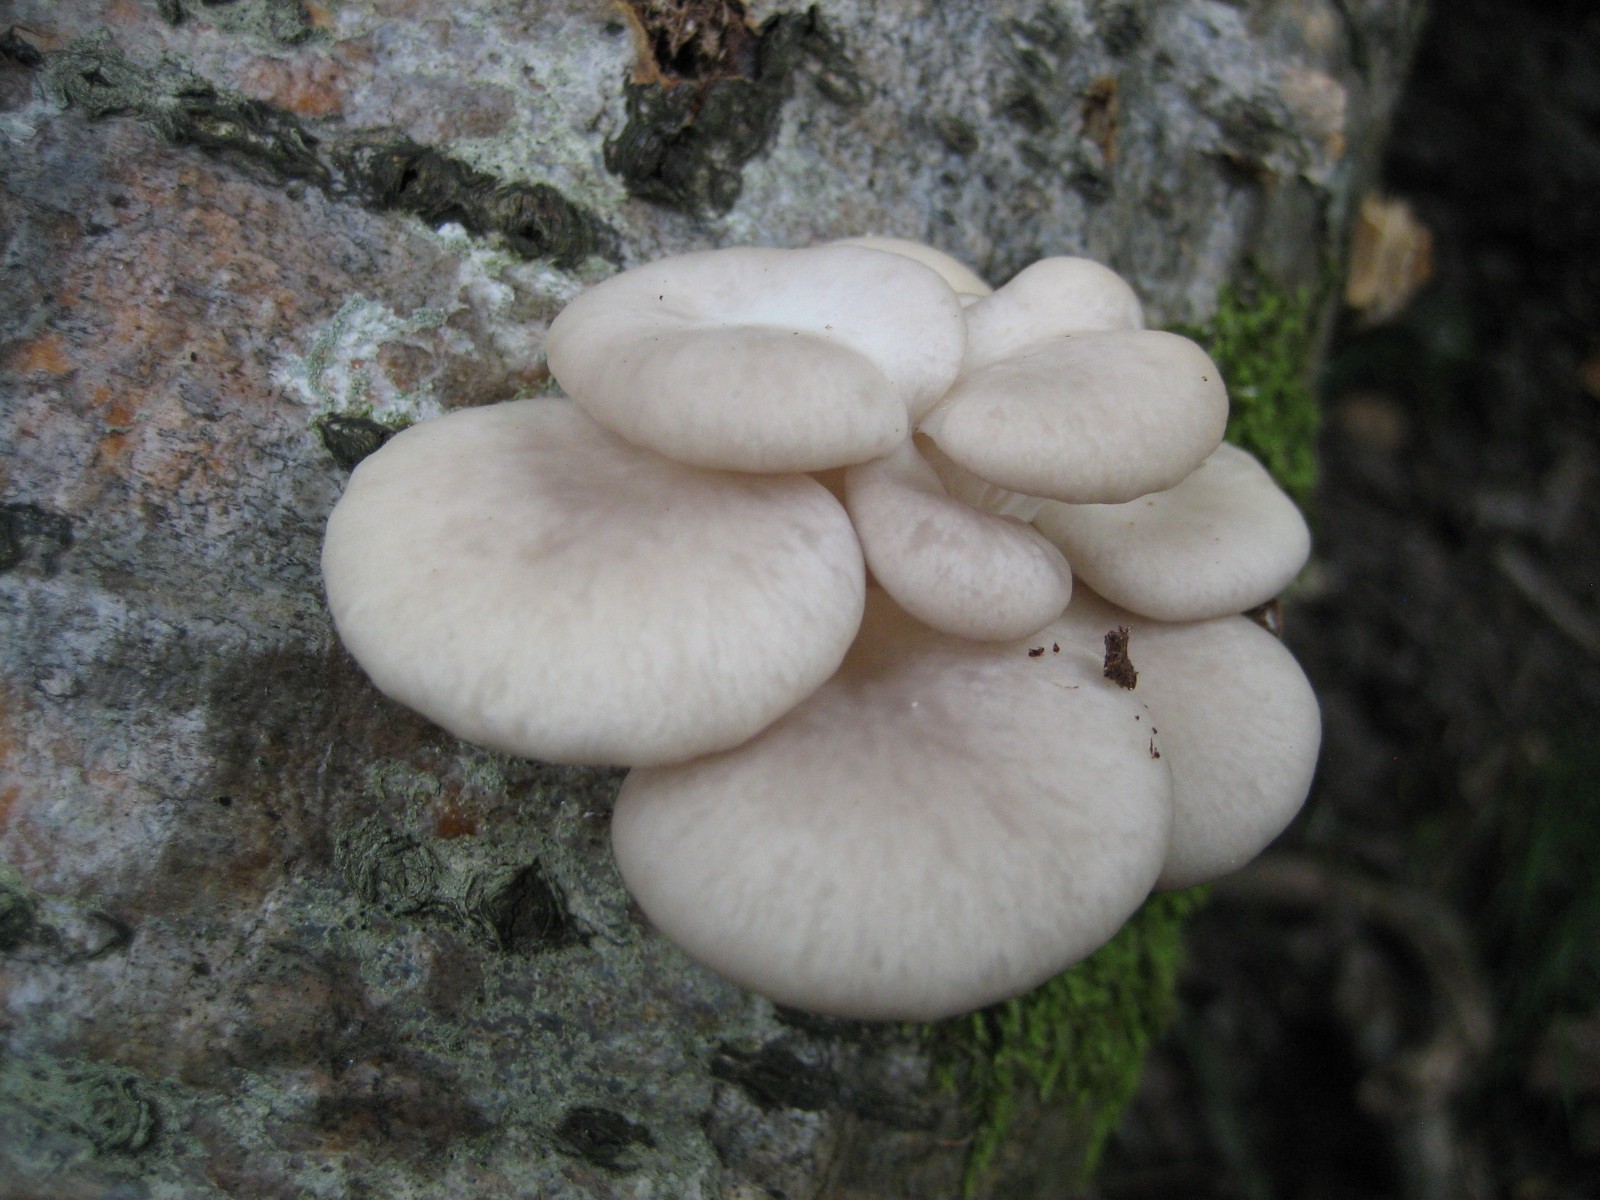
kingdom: Fungi
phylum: Basidiomycota
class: Agaricomycetes
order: Agaricales
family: Pleurotaceae
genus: Pleurotus
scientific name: Pleurotus pulmonarius
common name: sommer-østershat
